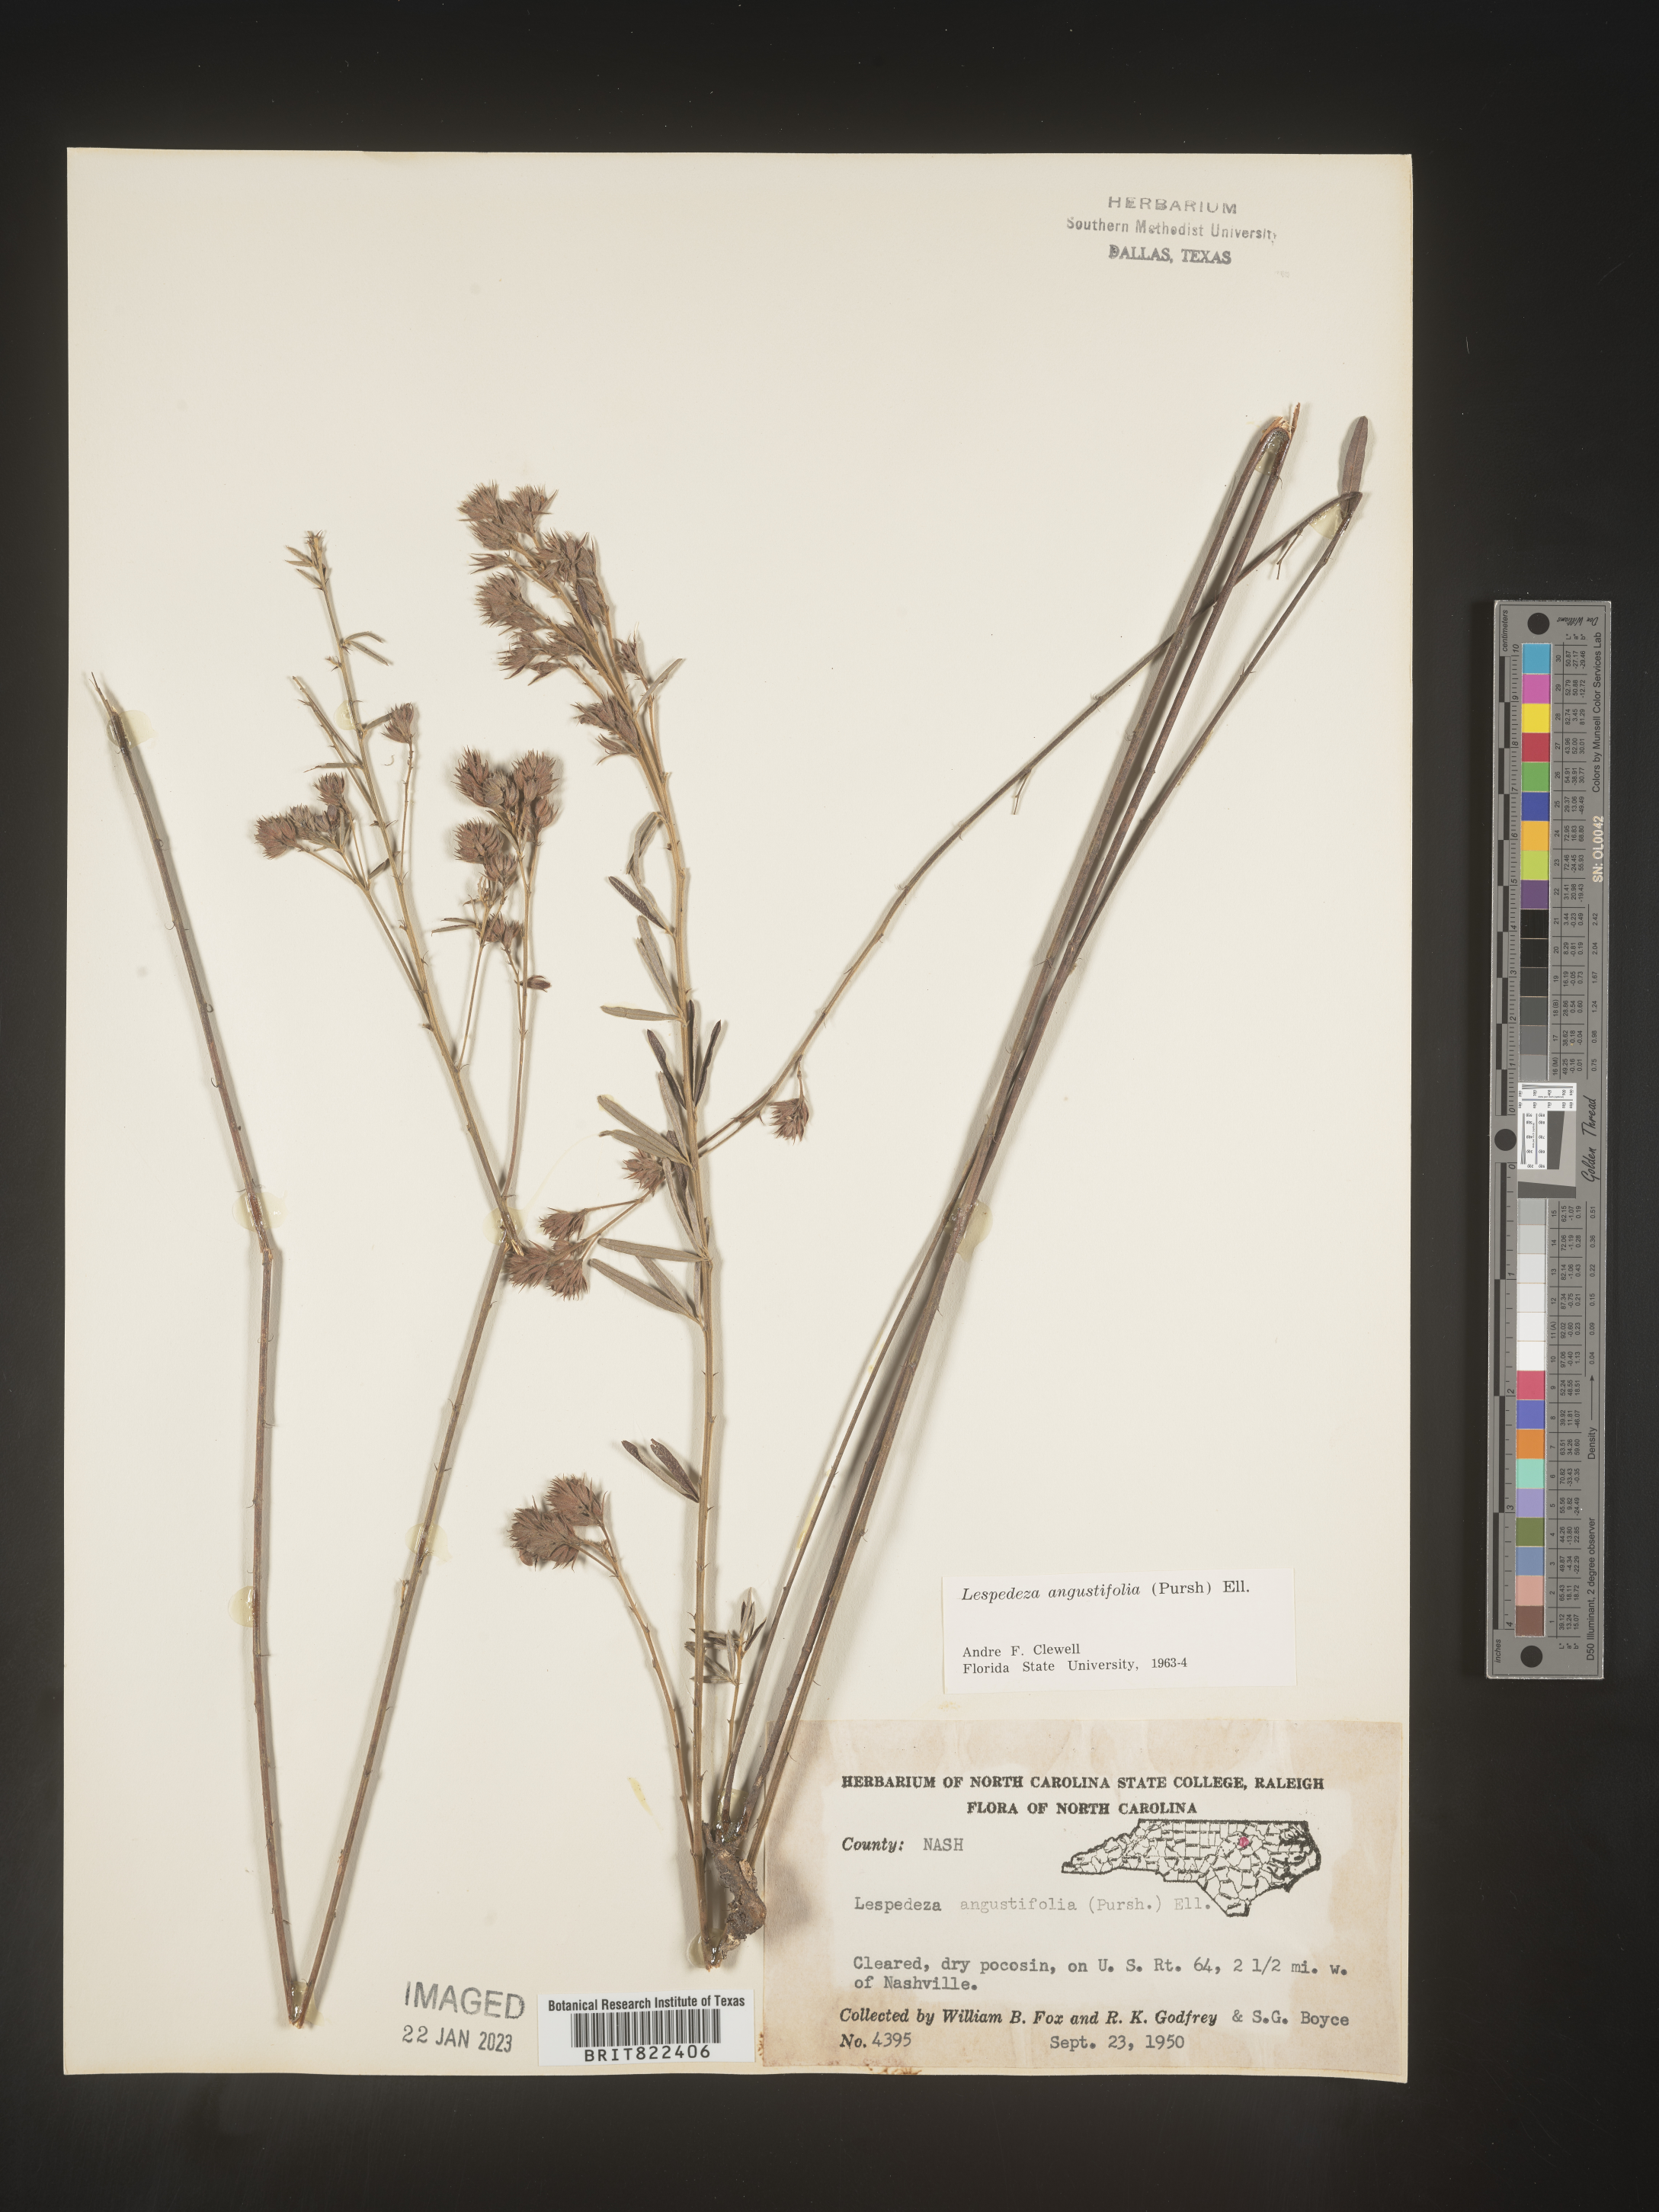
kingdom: Plantae
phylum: Tracheophyta
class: Magnoliopsida
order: Fabales
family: Fabaceae
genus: Lespedeza
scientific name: Lespedeza
